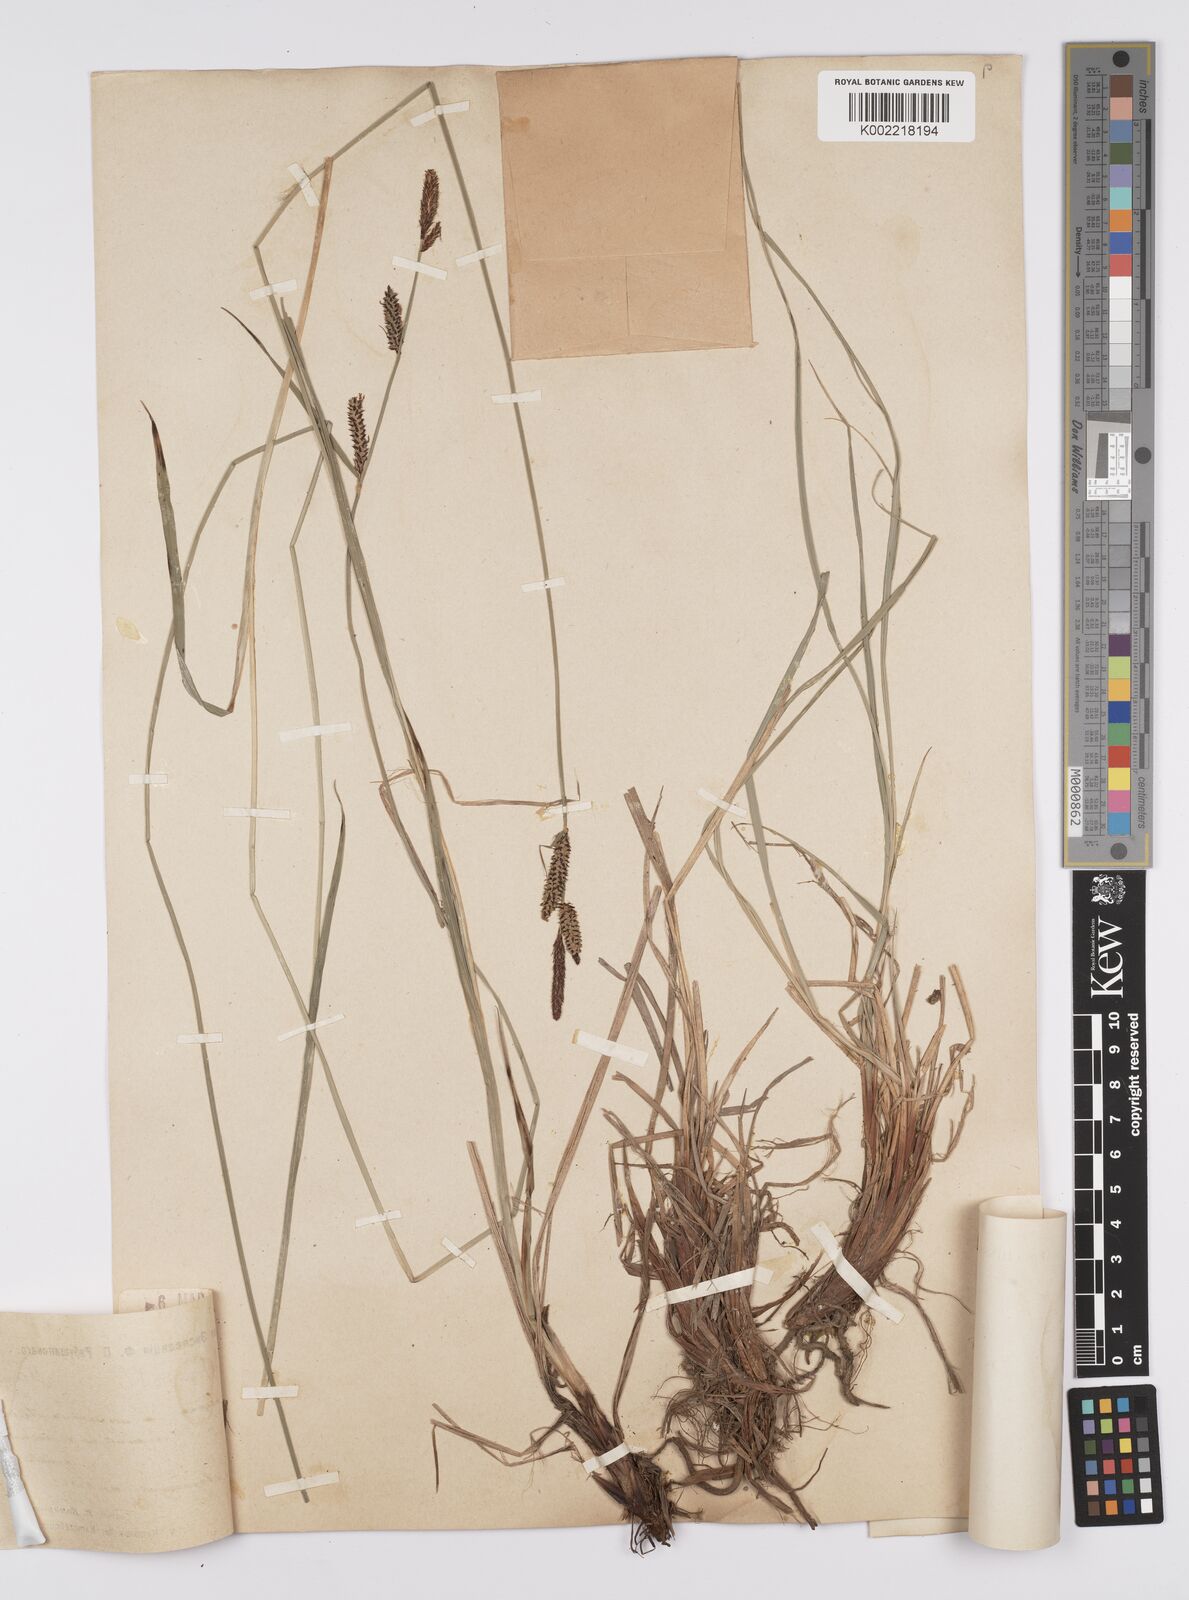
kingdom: Plantae
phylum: Tracheophyta
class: Liliopsida
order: Poales
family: Cyperaceae
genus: Carex
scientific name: Carex schmidtii
